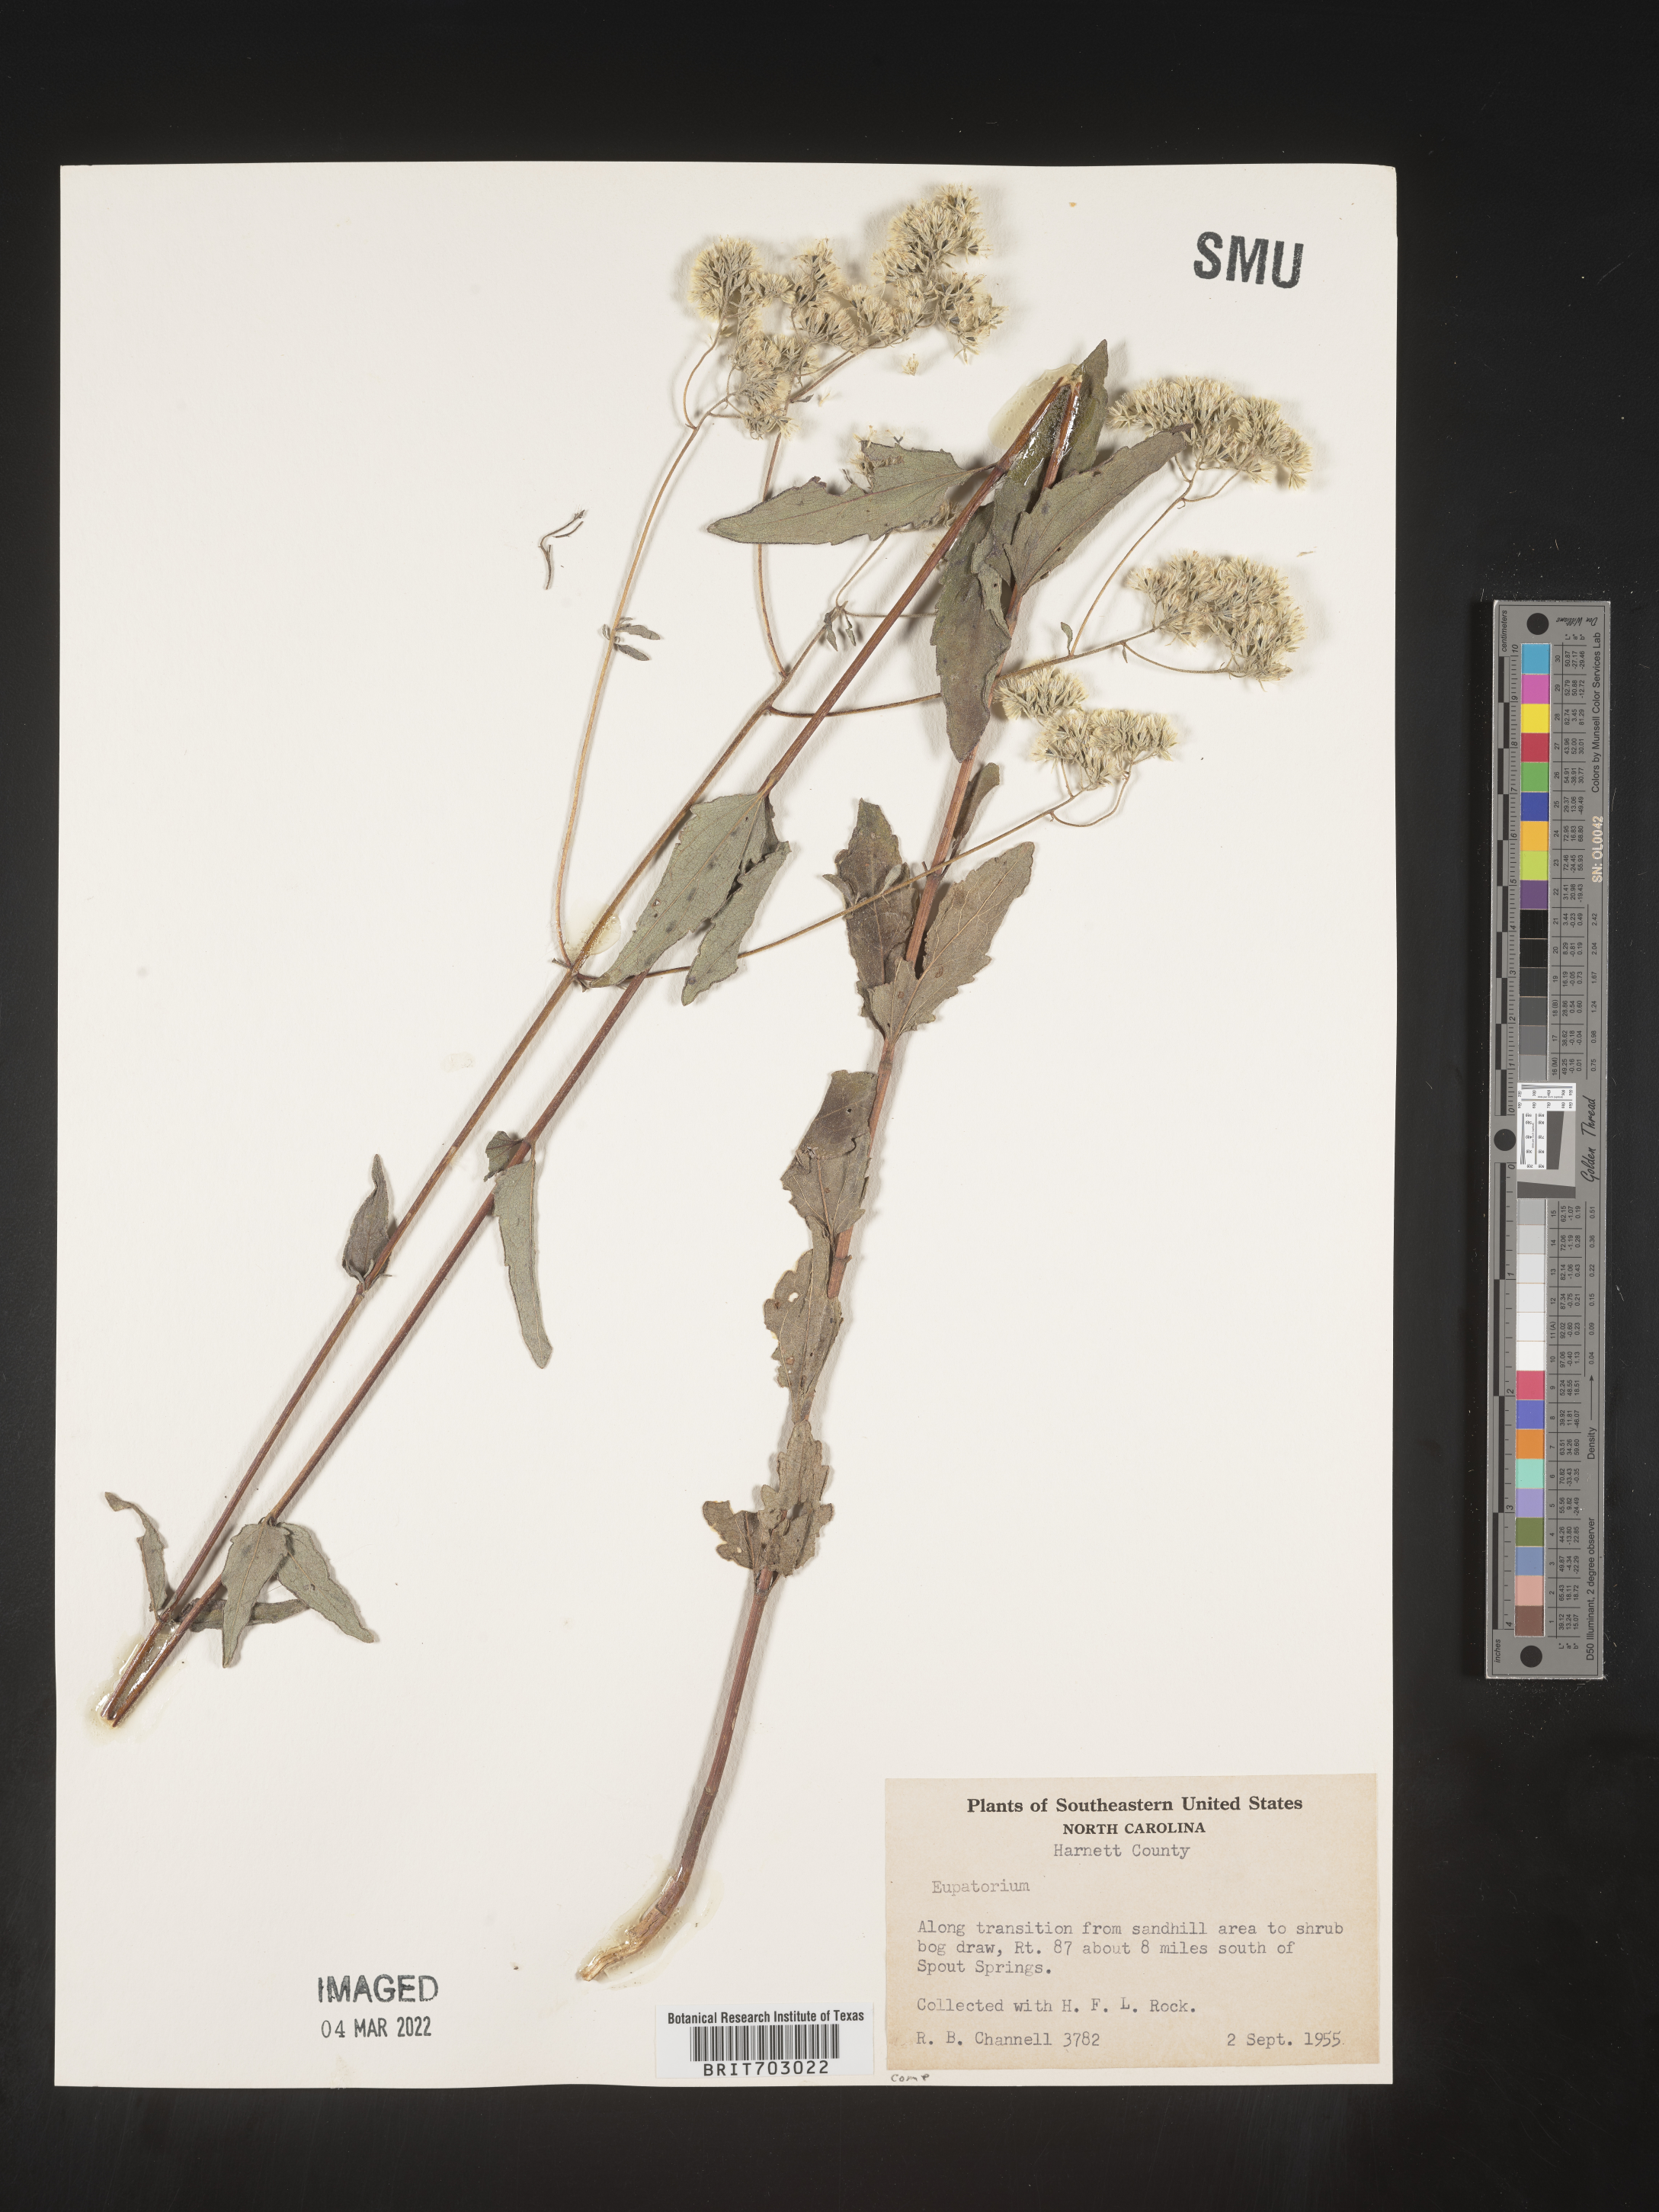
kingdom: Plantae
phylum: Tracheophyta
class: Magnoliopsida
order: Asterales
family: Asteraceae
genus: Eupatorium
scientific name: Eupatorium
